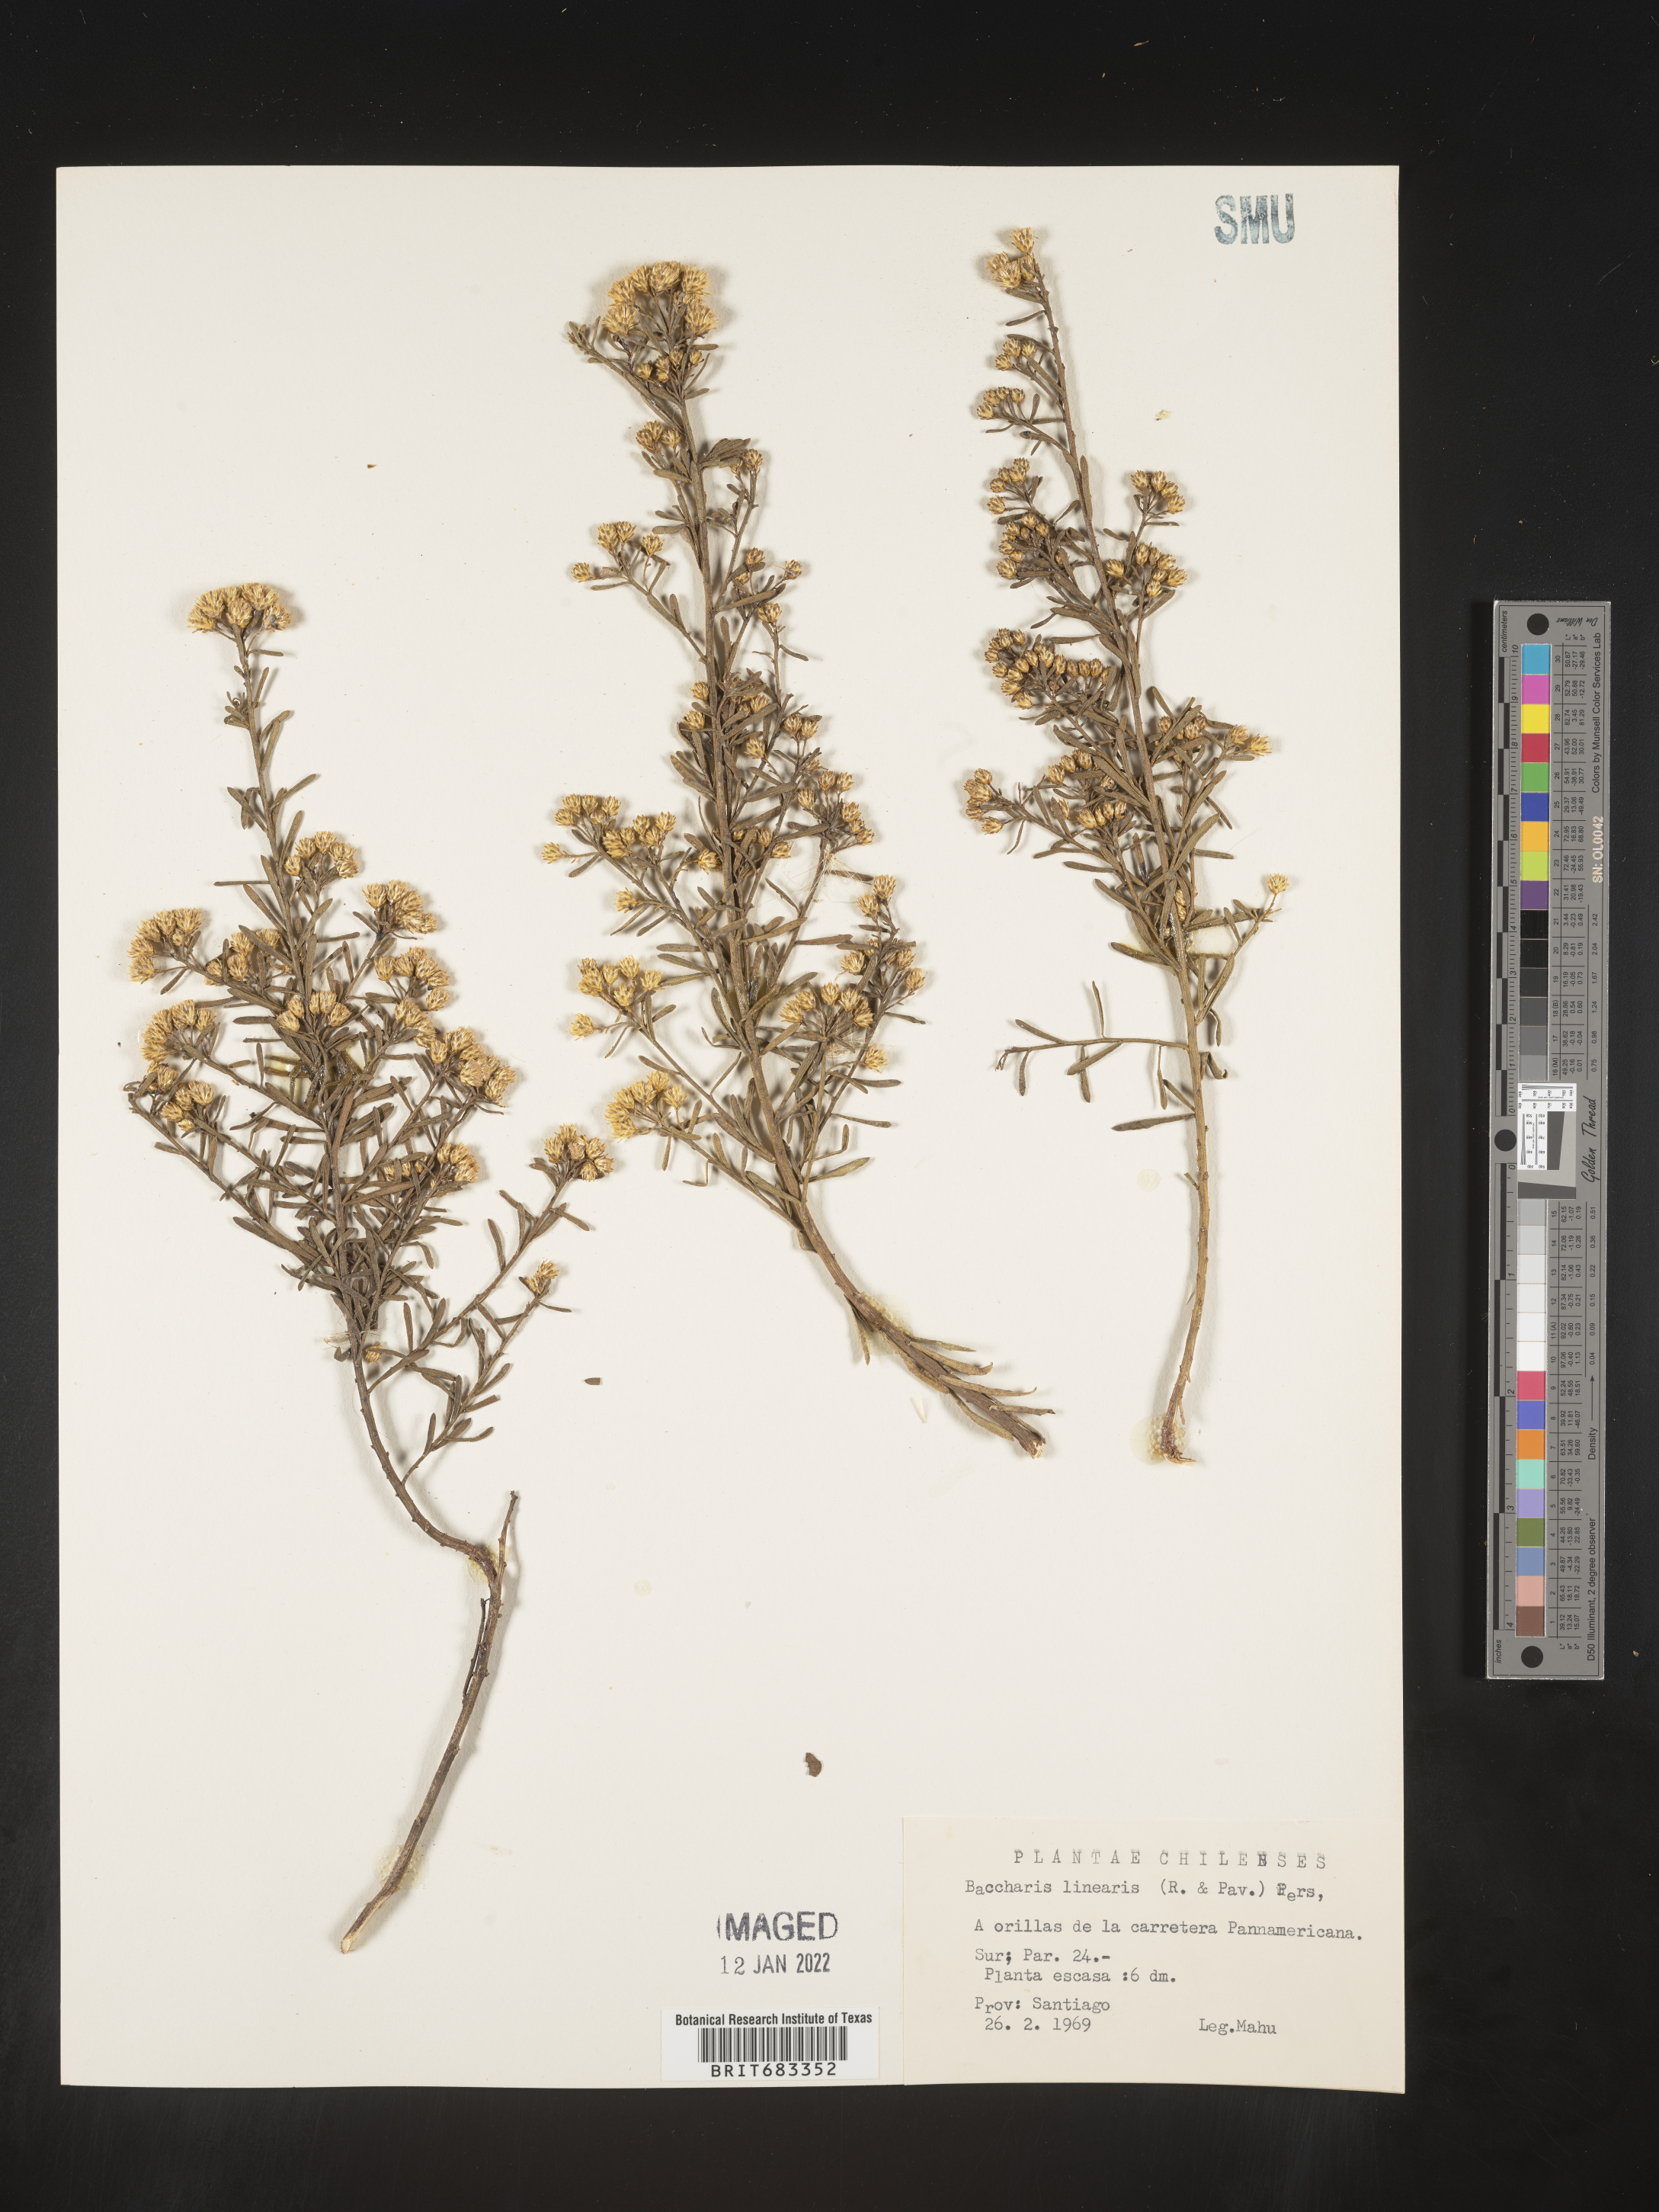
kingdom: Plantae
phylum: Tracheophyta
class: Magnoliopsida
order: Asterales
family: Asteraceae
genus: Baccharis
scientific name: Baccharis
